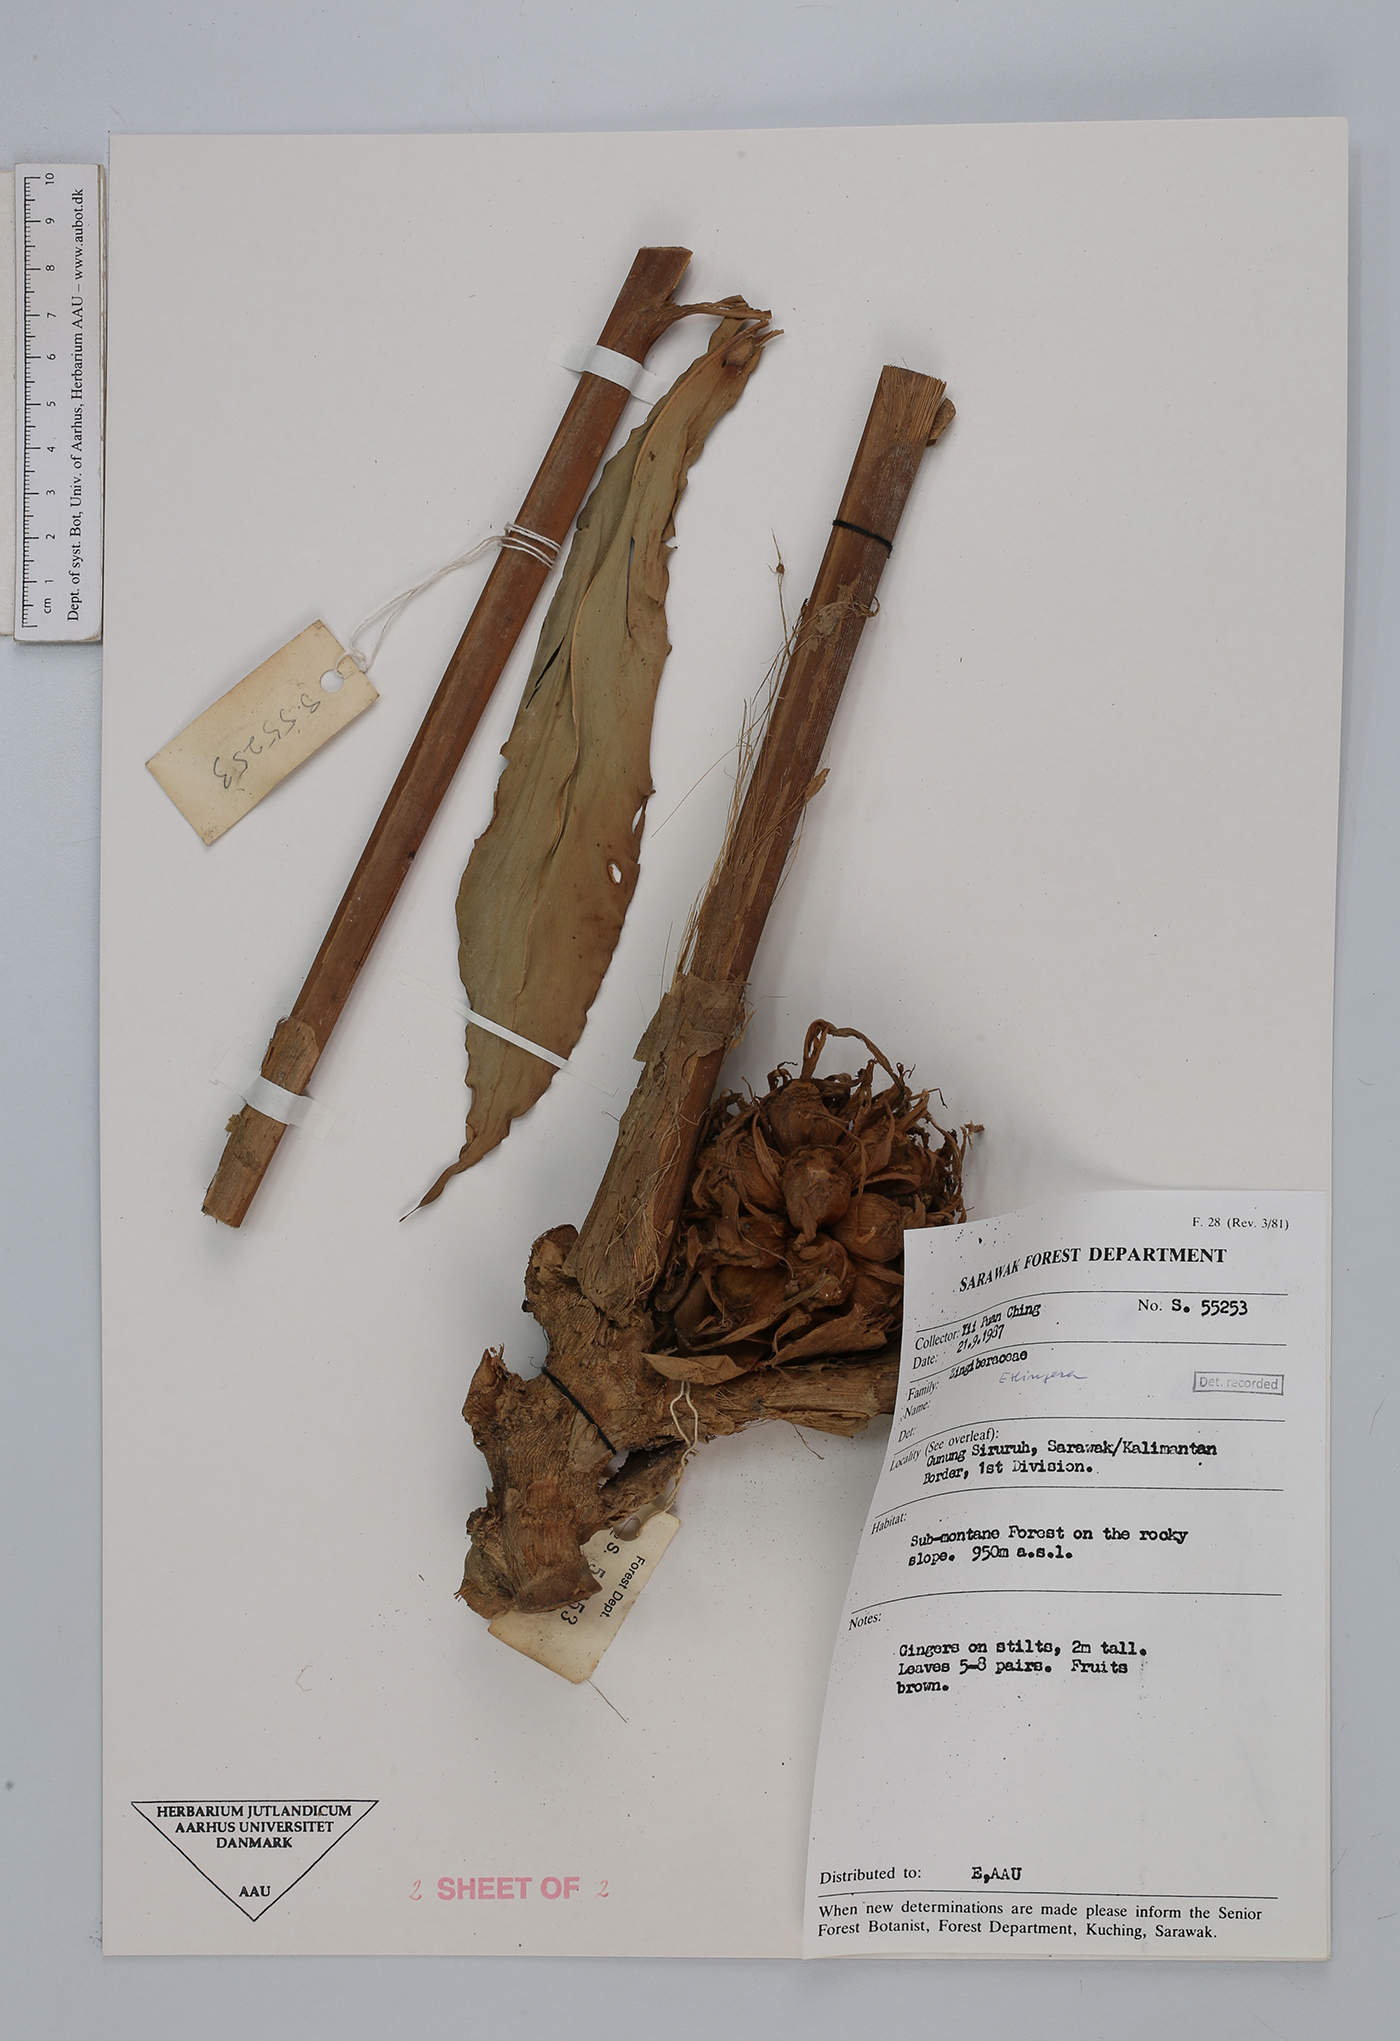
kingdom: Plantae
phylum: Tracheophyta
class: Liliopsida
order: Zingiberales
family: Zingiberaceae
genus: Etlingera
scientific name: Etlingera
